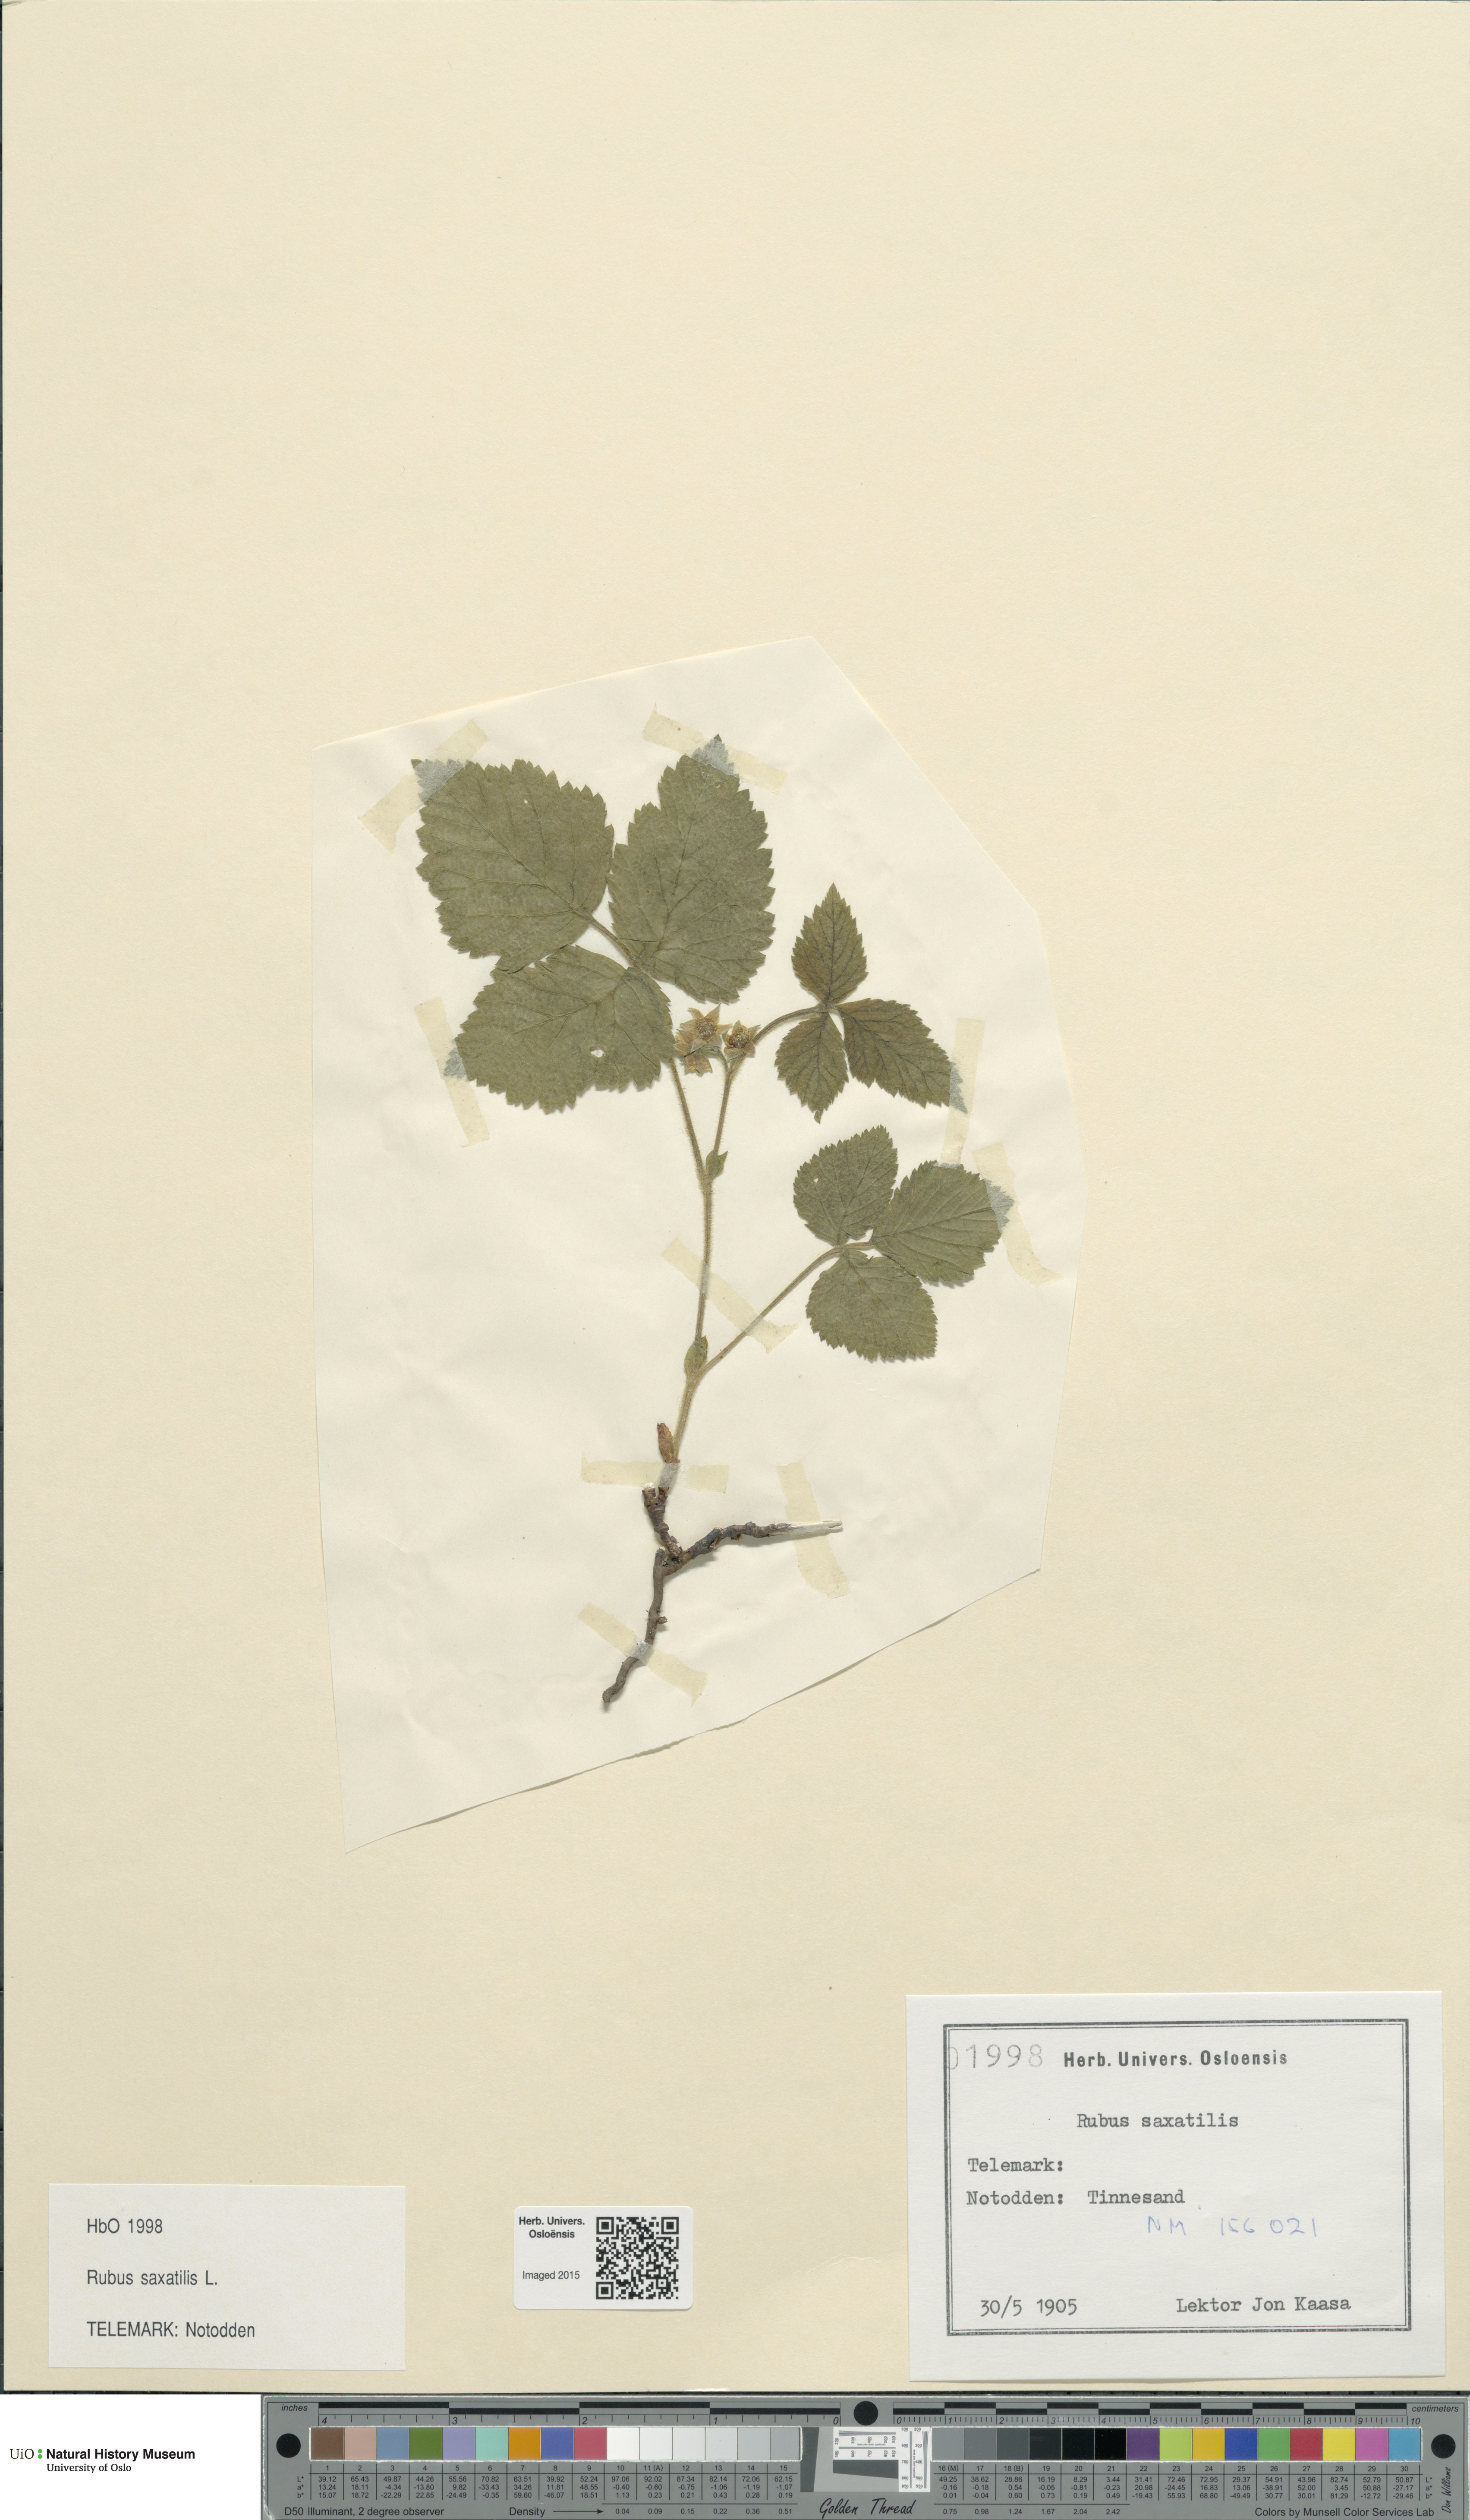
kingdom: Plantae
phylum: Tracheophyta
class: Magnoliopsida
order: Rosales
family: Rosaceae
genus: Rubus
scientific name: Rubus saxatilis
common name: Stone bramble
